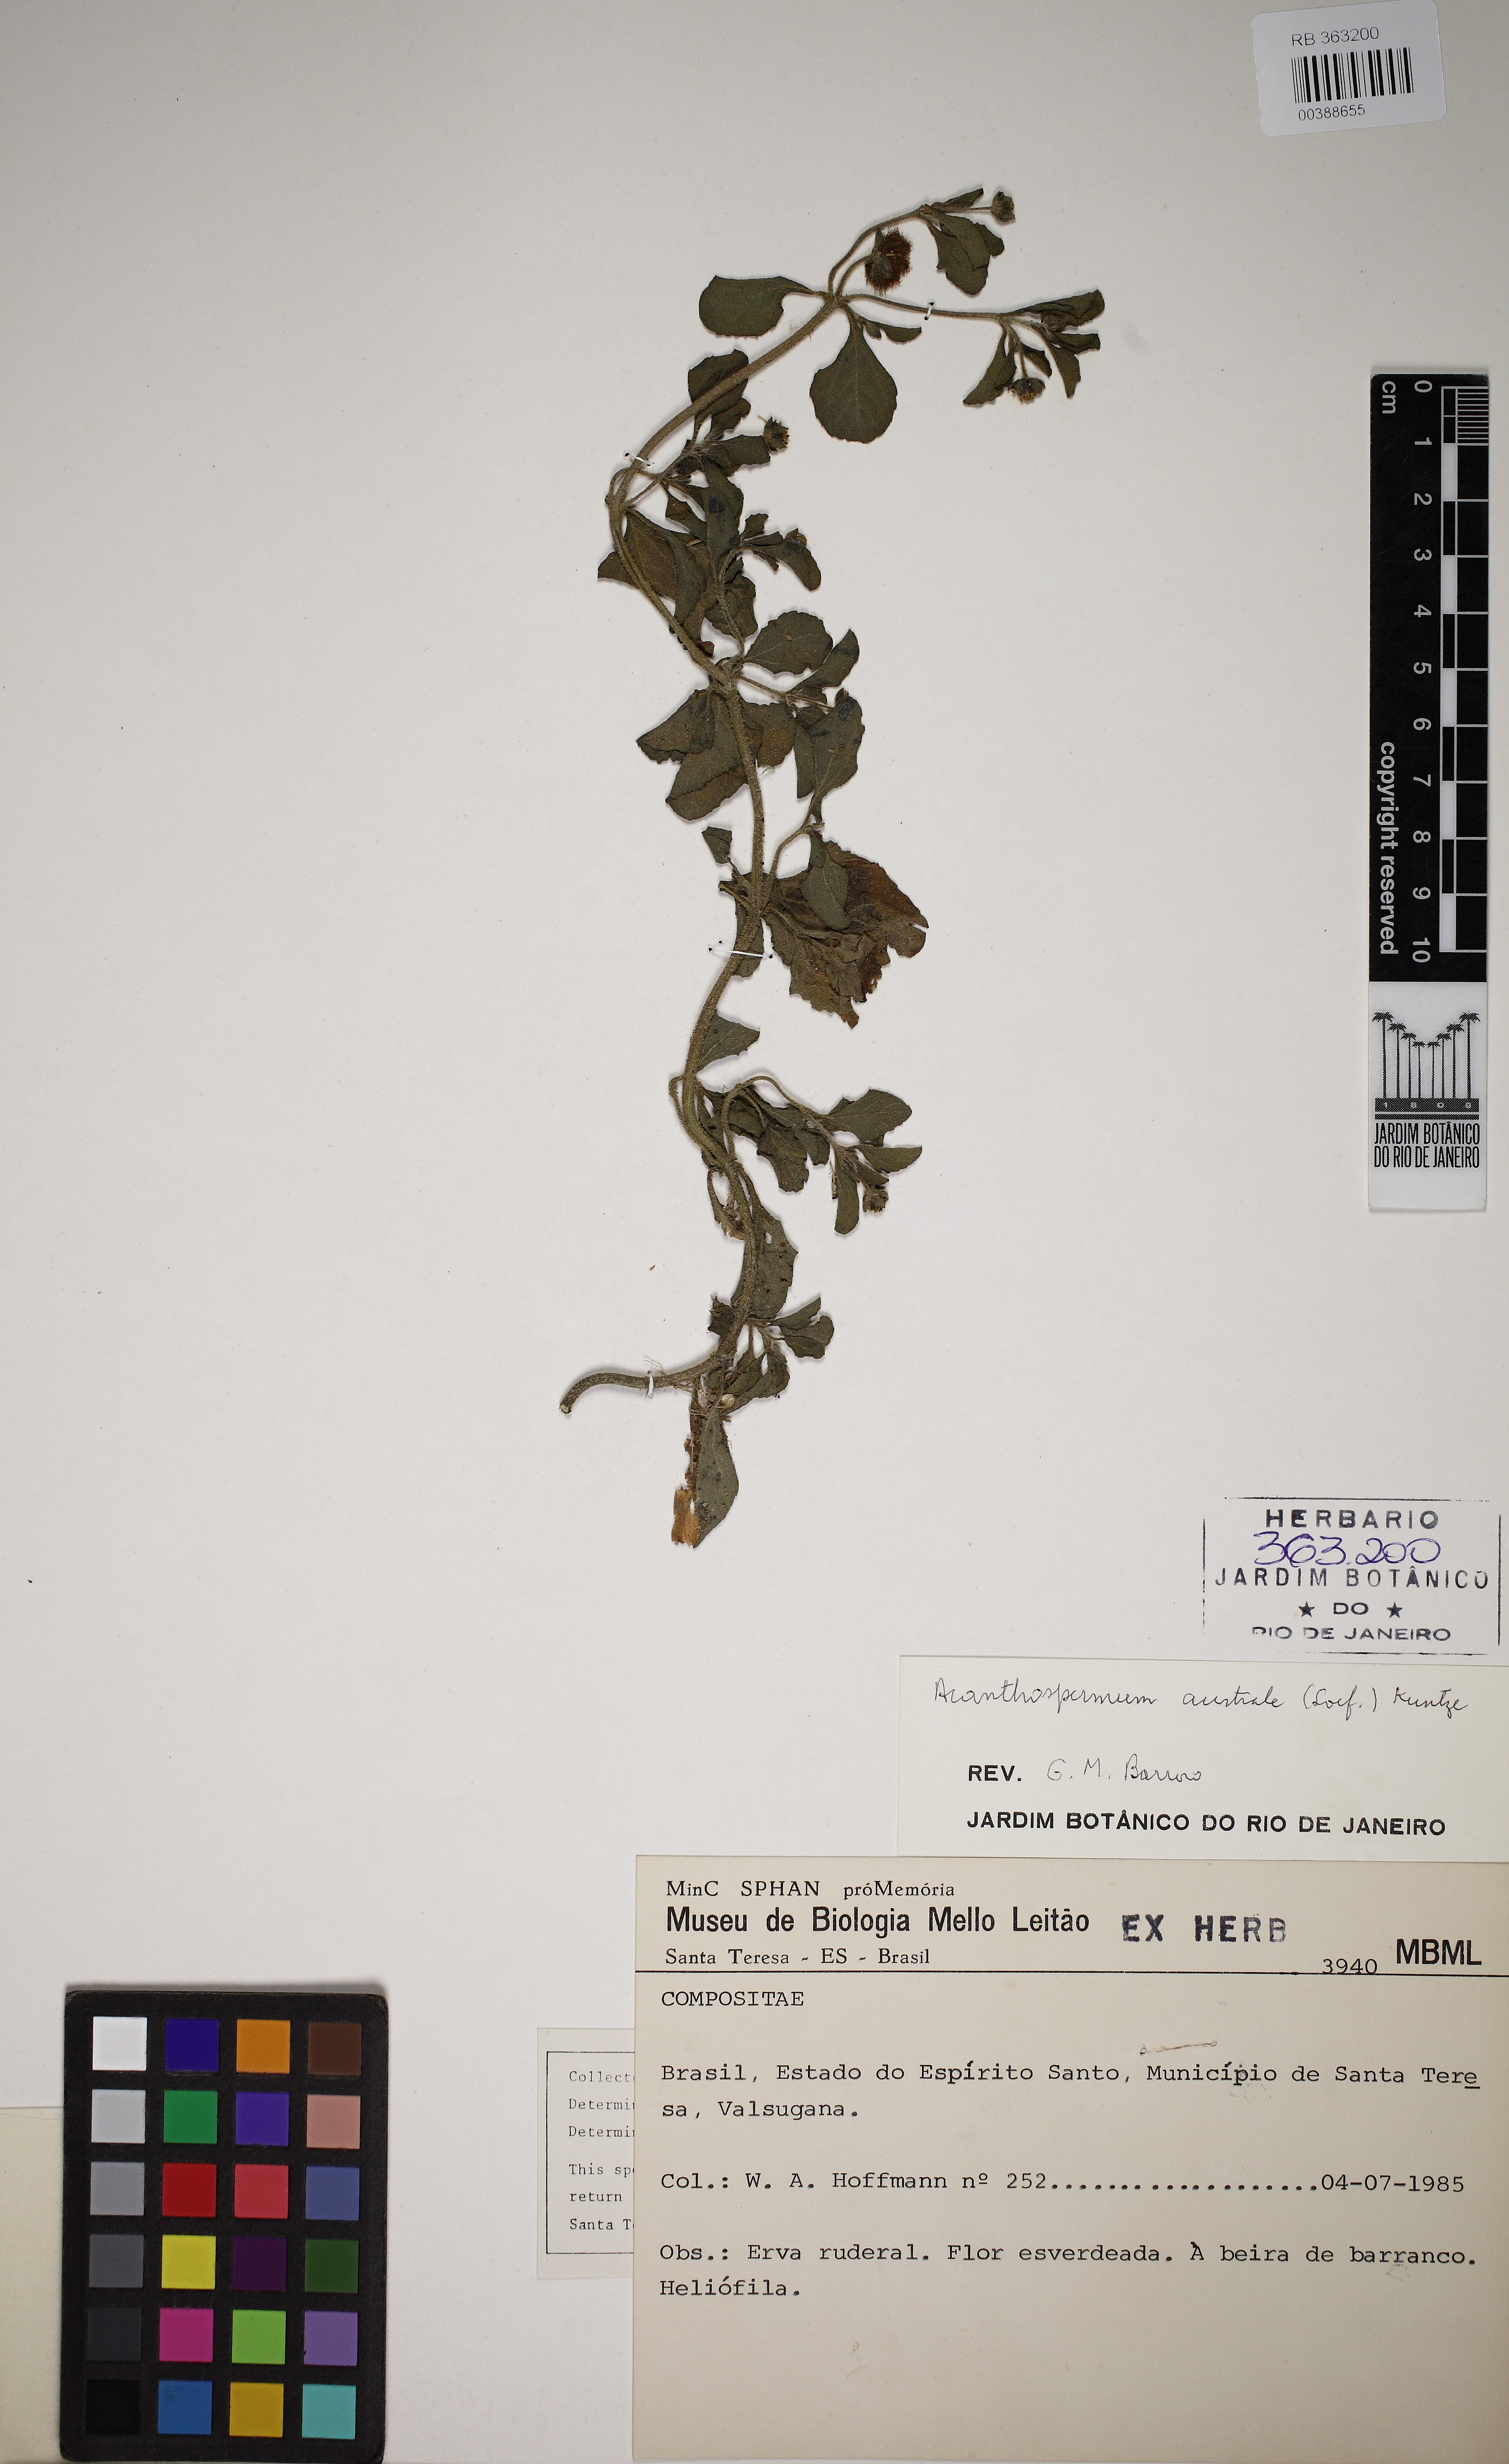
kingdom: Plantae
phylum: Tracheophyta
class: Magnoliopsida
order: Asterales
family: Asteraceae
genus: Acanthospermum
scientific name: Acanthospermum australe
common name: Paraguayan starbur
